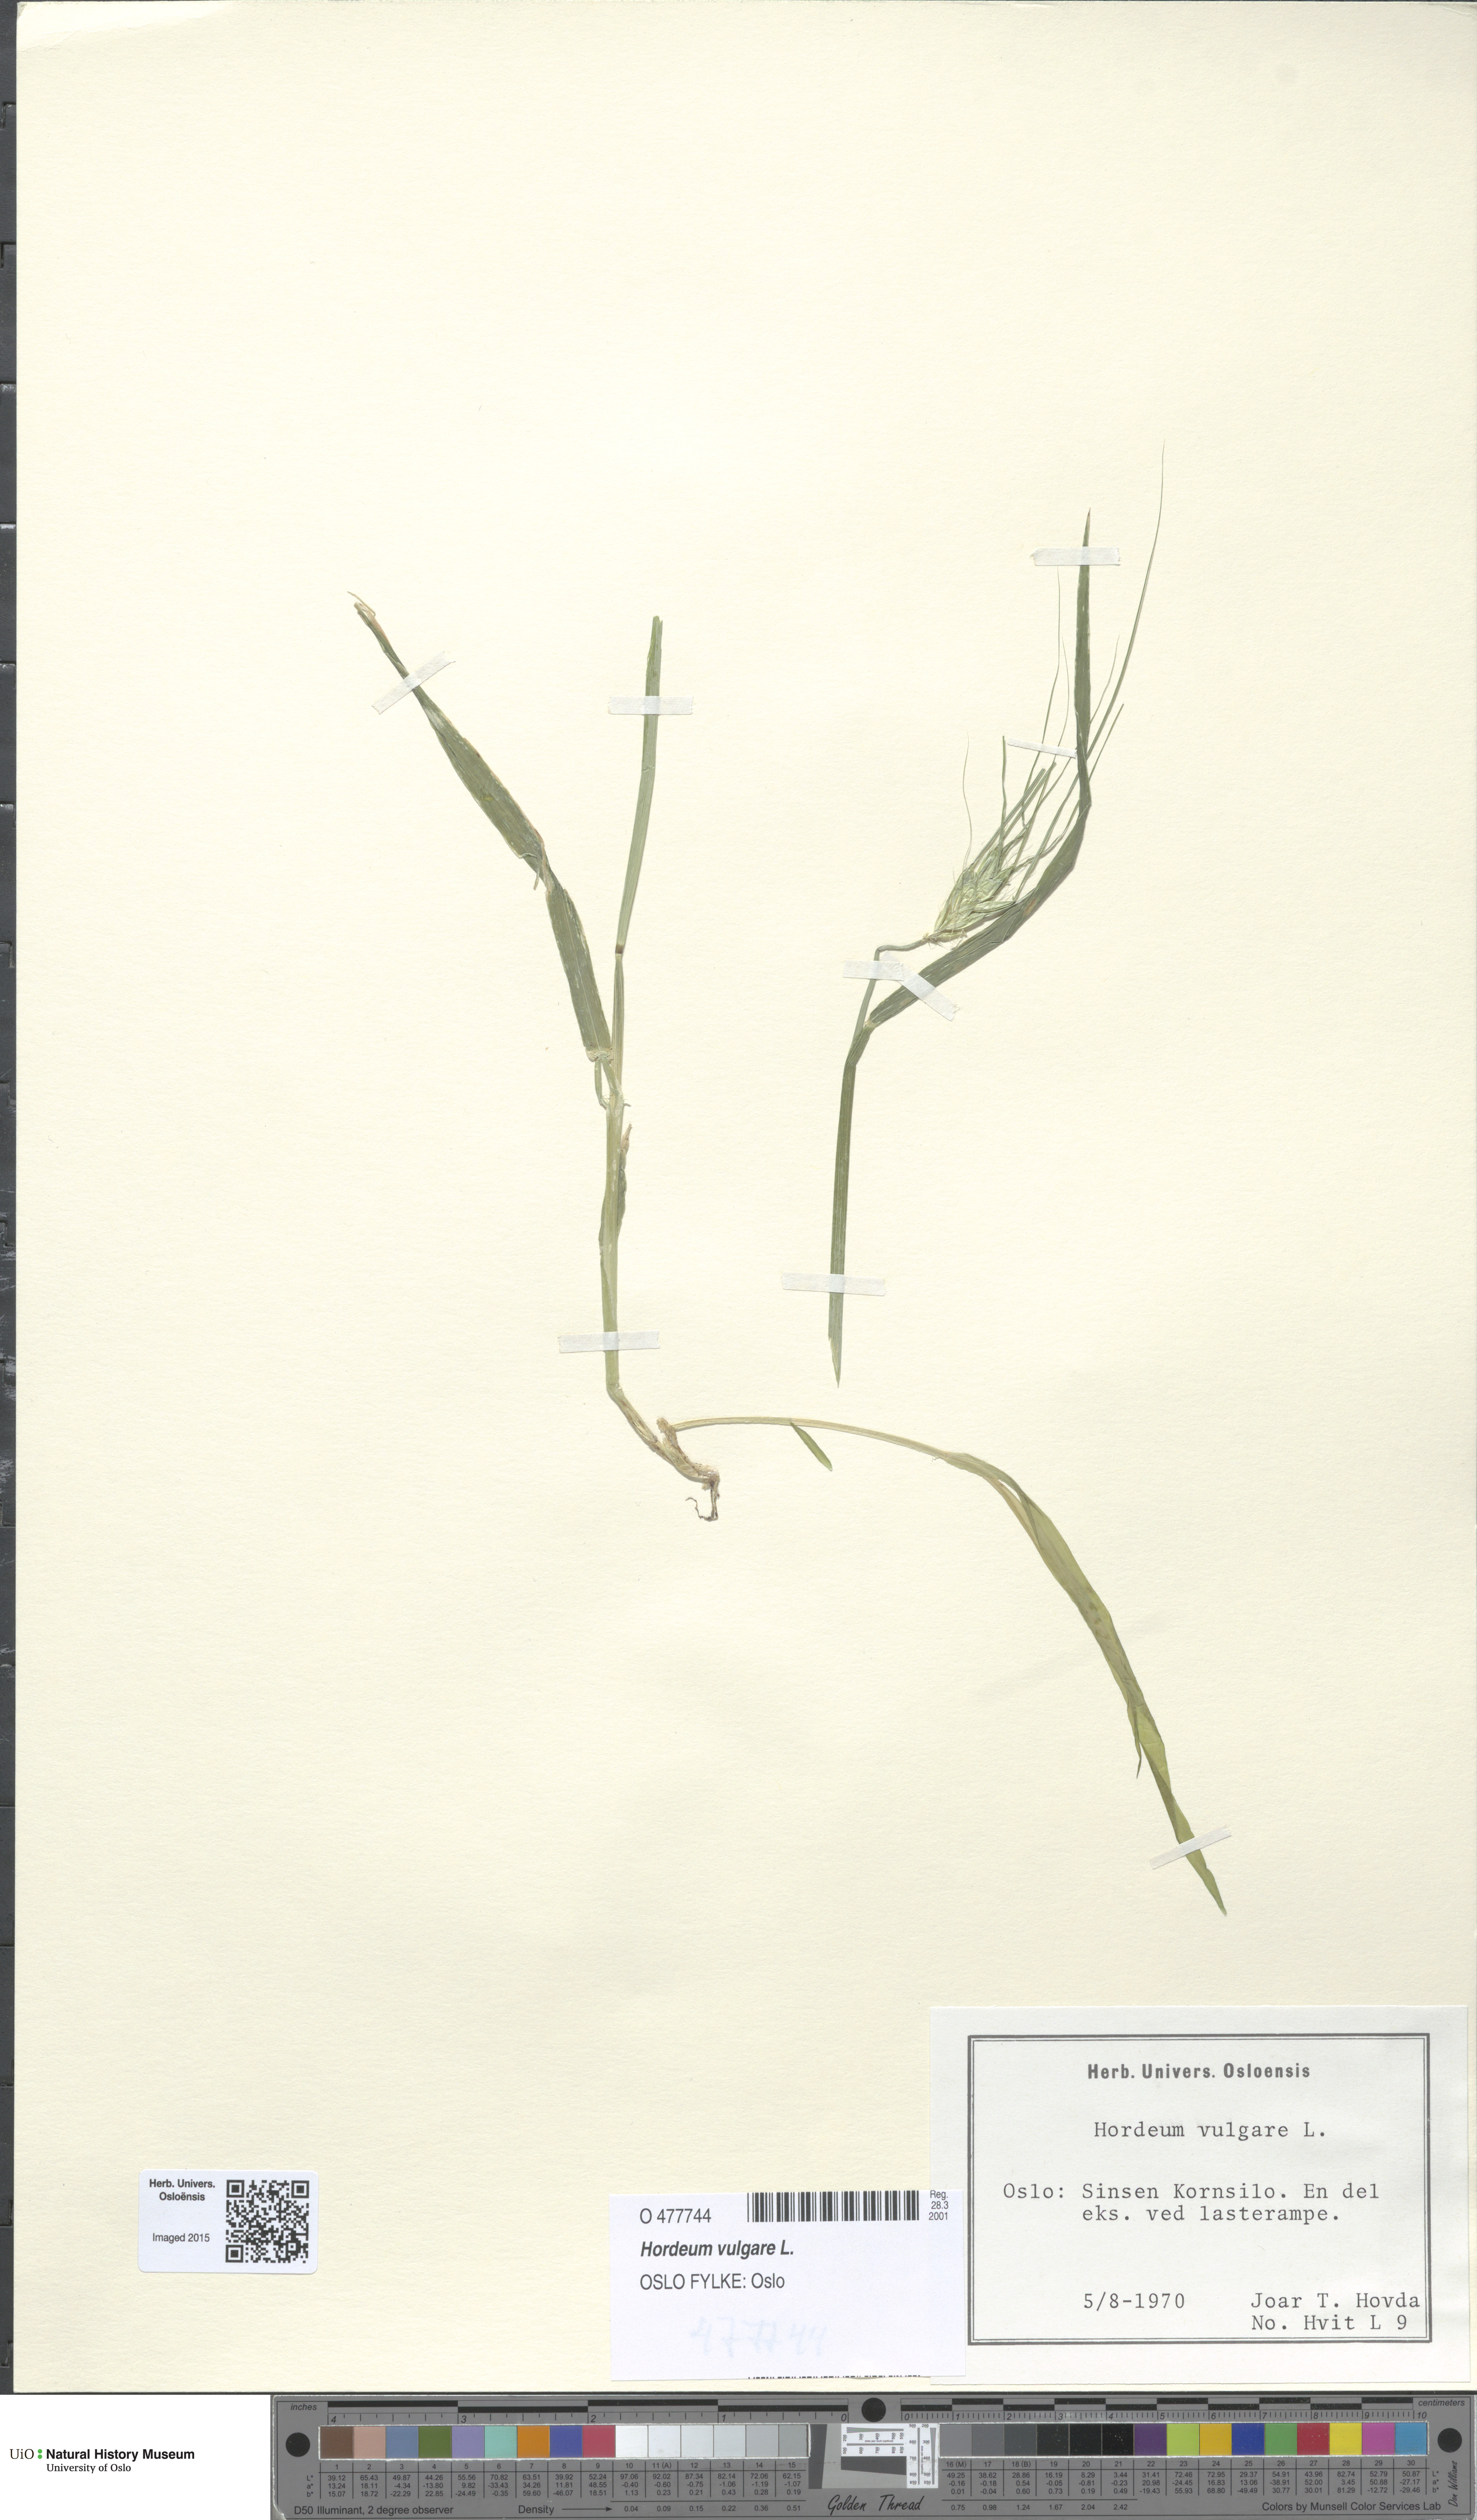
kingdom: Plantae
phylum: Tracheophyta
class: Liliopsida
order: Poales
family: Poaceae
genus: Hordeum
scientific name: Hordeum vulgare
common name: Common barley
